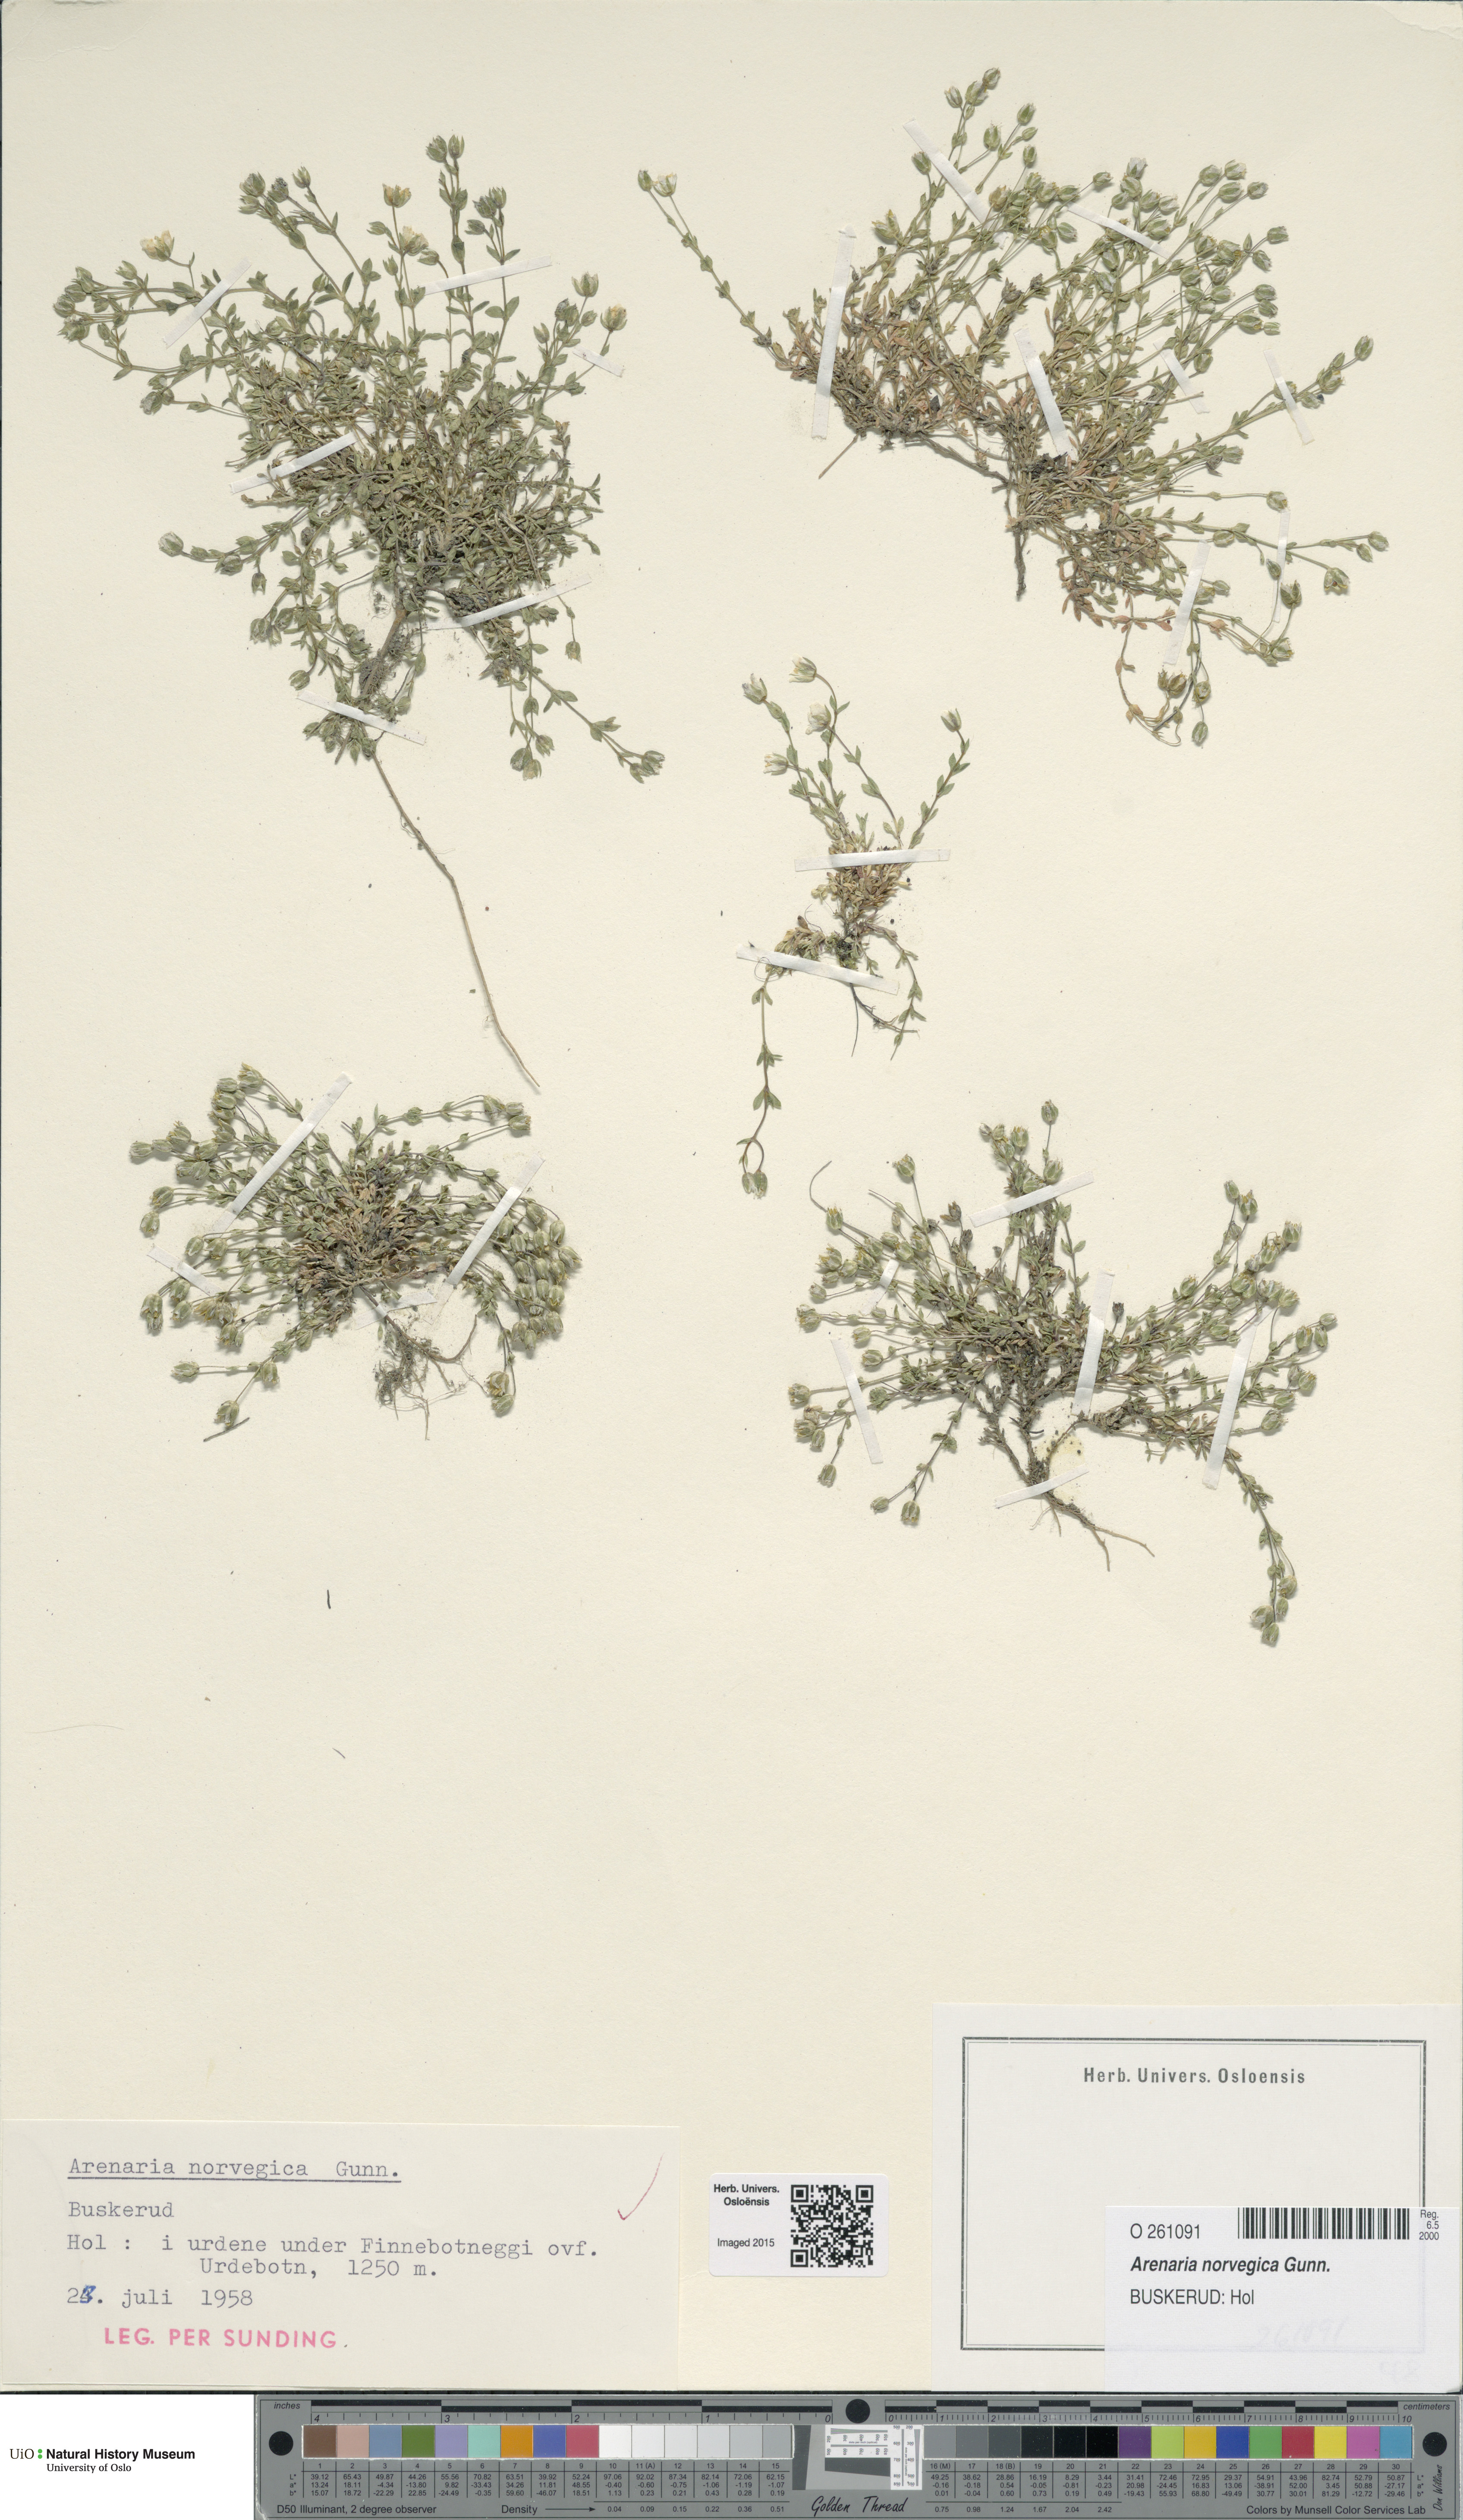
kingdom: Plantae
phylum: Tracheophyta
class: Magnoliopsida
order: Caryophyllales
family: Caryophyllaceae
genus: Arenaria
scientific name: Arenaria norvegica
